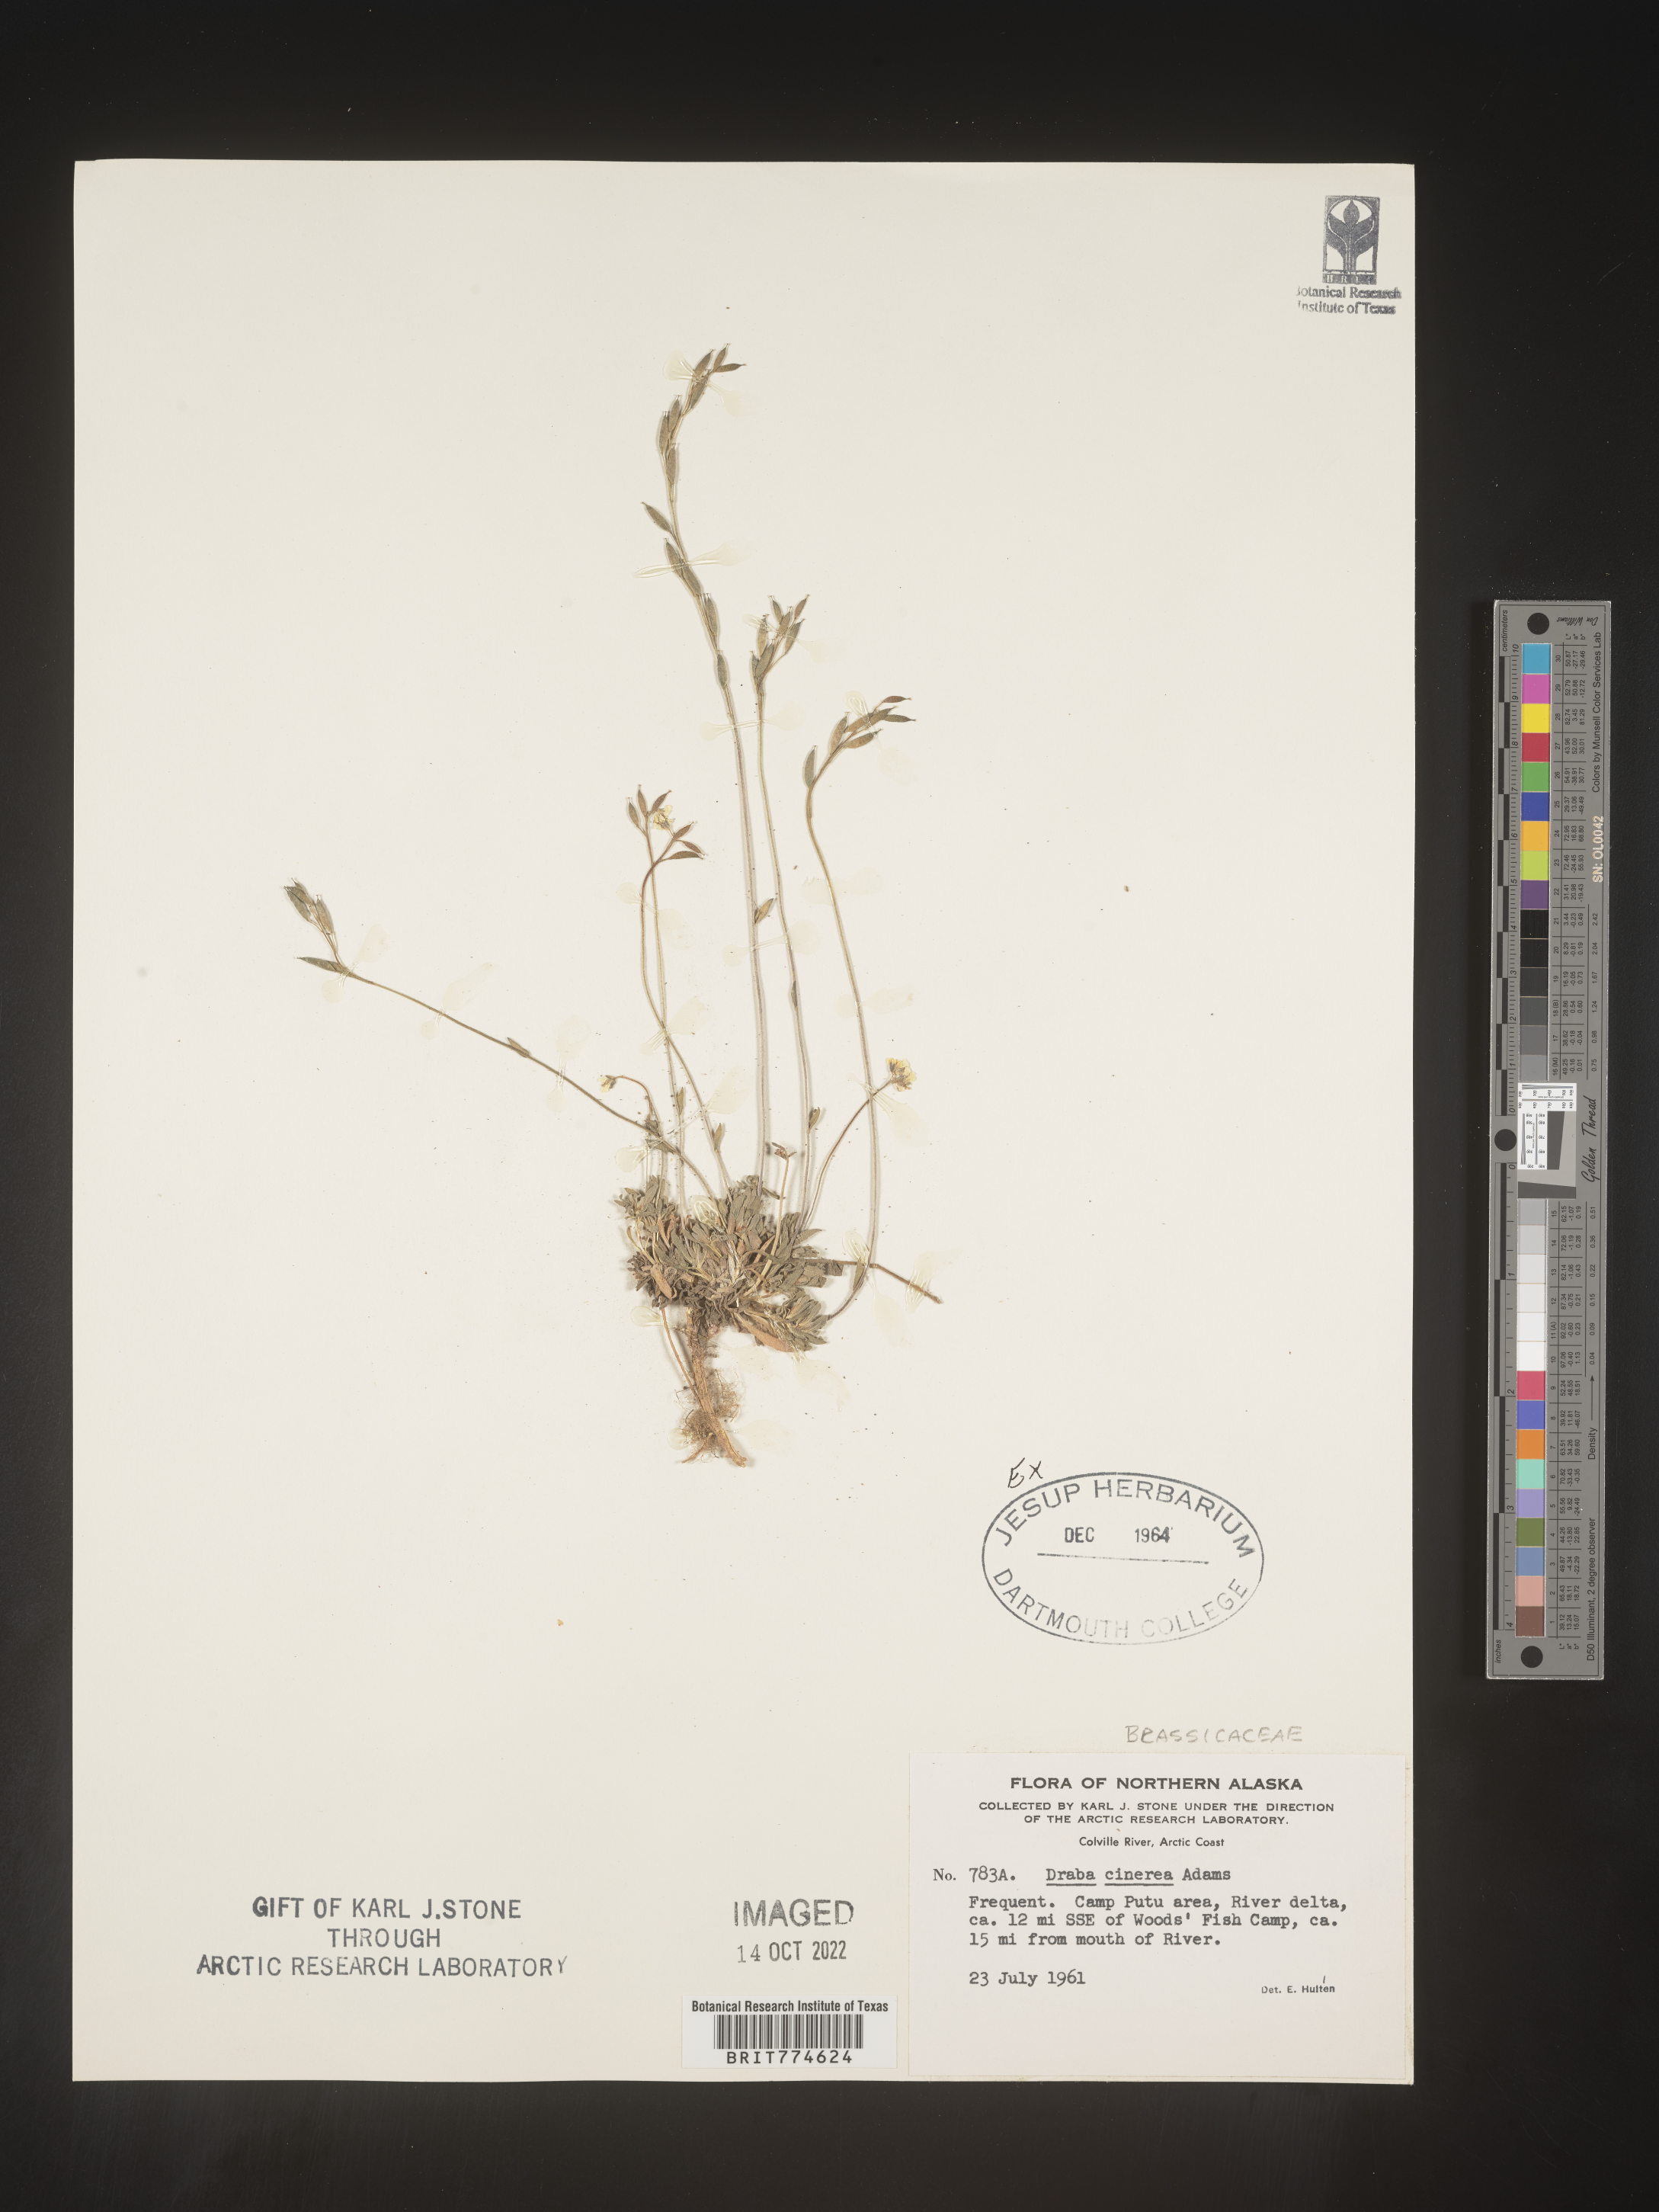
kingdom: Plantae
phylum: Tracheophyta
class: Magnoliopsida
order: Brassicales
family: Brassicaceae
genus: Draba
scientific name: Draba
